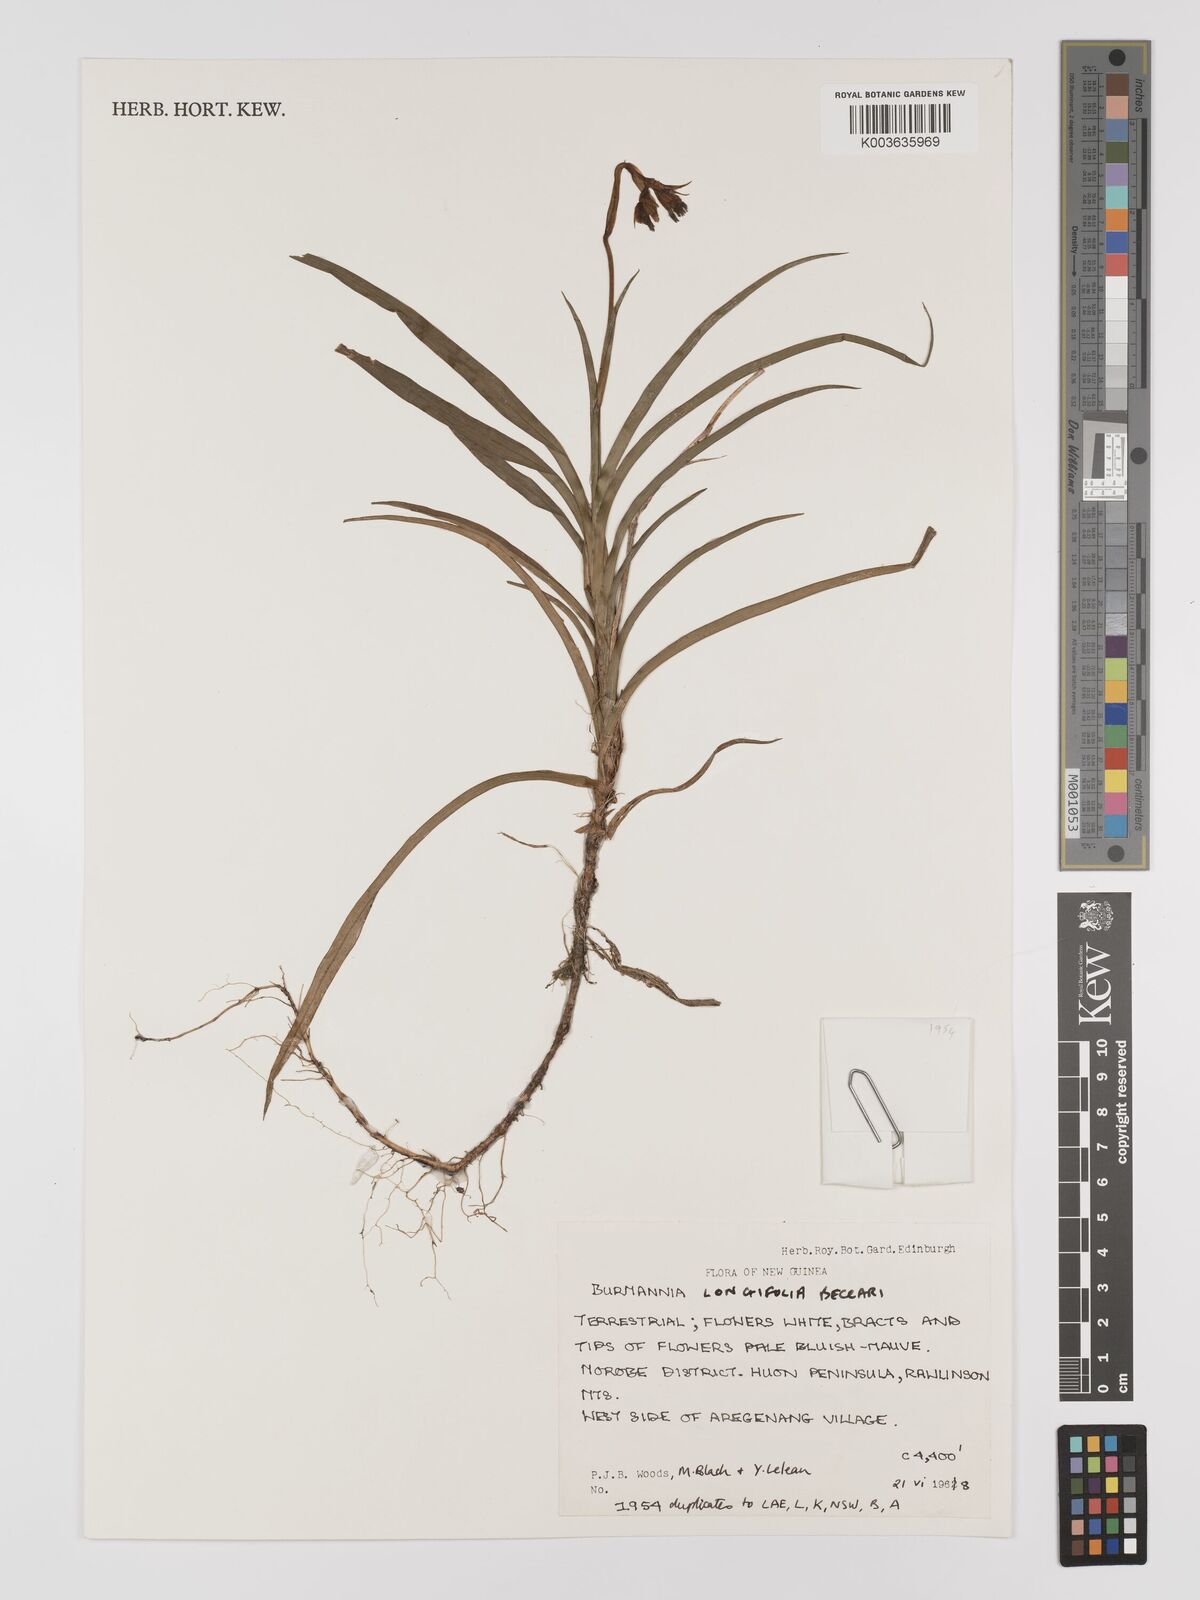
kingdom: Plantae
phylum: Tracheophyta
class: Liliopsida
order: Dioscoreales
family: Burmanniaceae
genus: Burmannia
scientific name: Burmannia longifolia
